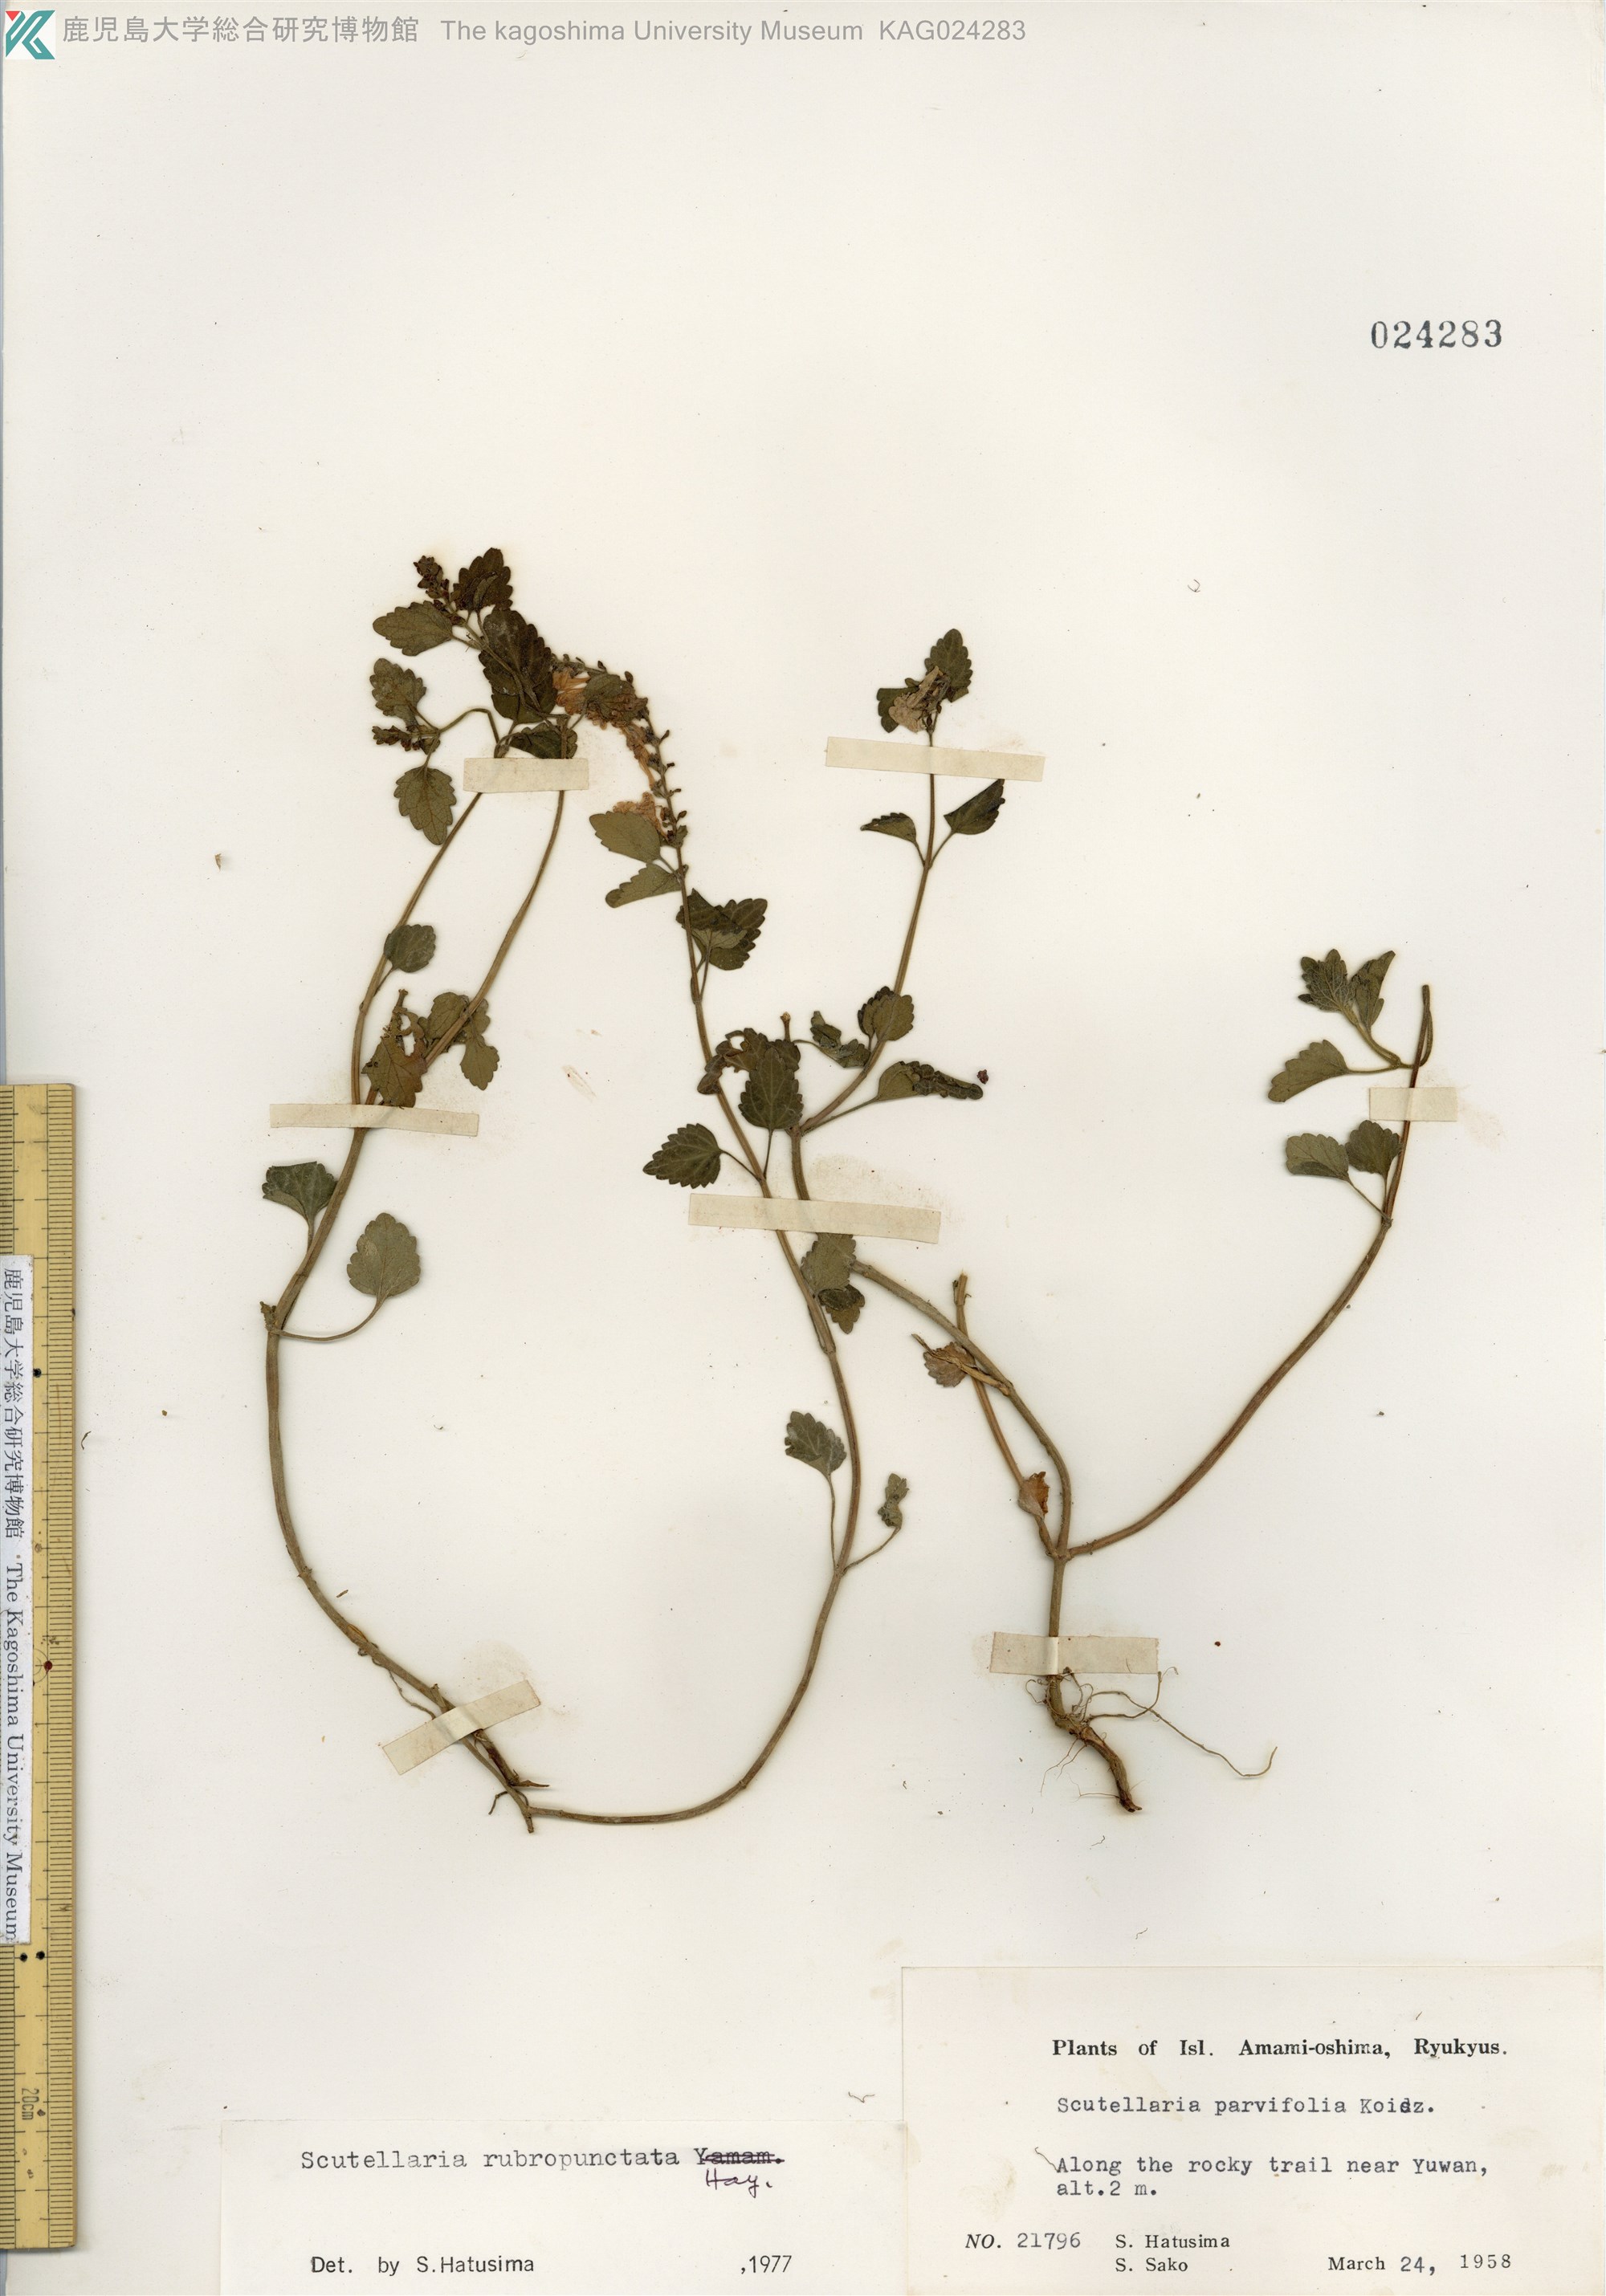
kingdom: Plantae
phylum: Tracheophyta
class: Magnoliopsida
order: Lamiales
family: Lamiaceae
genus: Scutellaria
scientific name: Scutellaria rubropunctata
